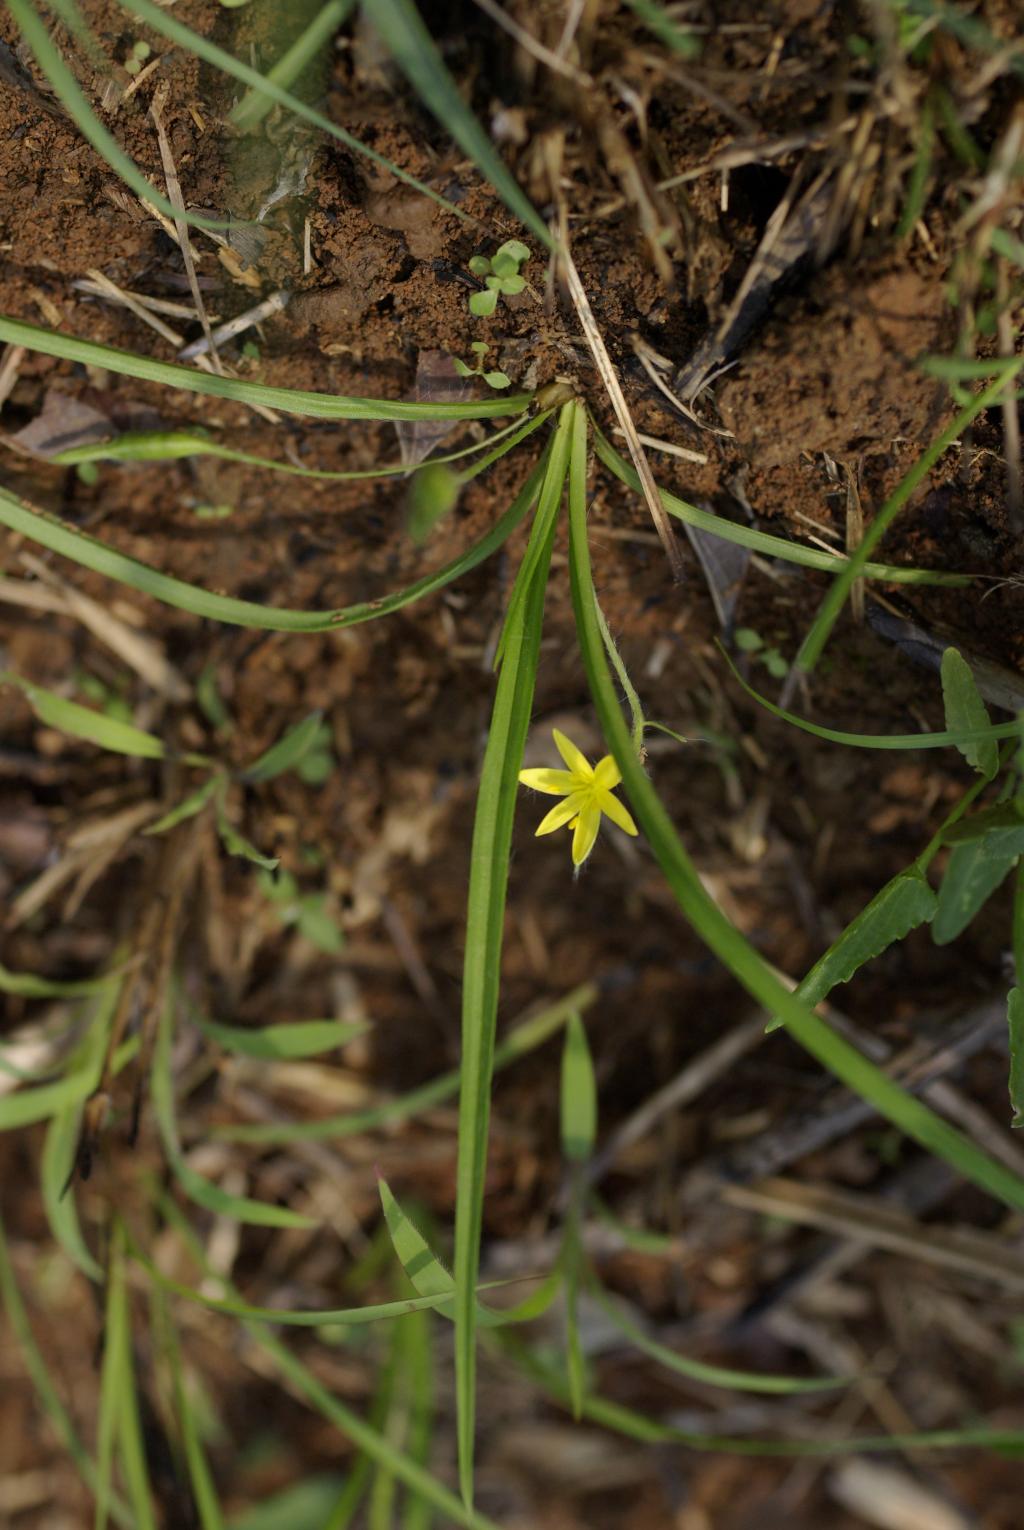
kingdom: Plantae
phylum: Tracheophyta
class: Liliopsida
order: Asparagales
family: Hypoxidaceae
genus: Hypoxis
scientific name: Hypoxis aurea
